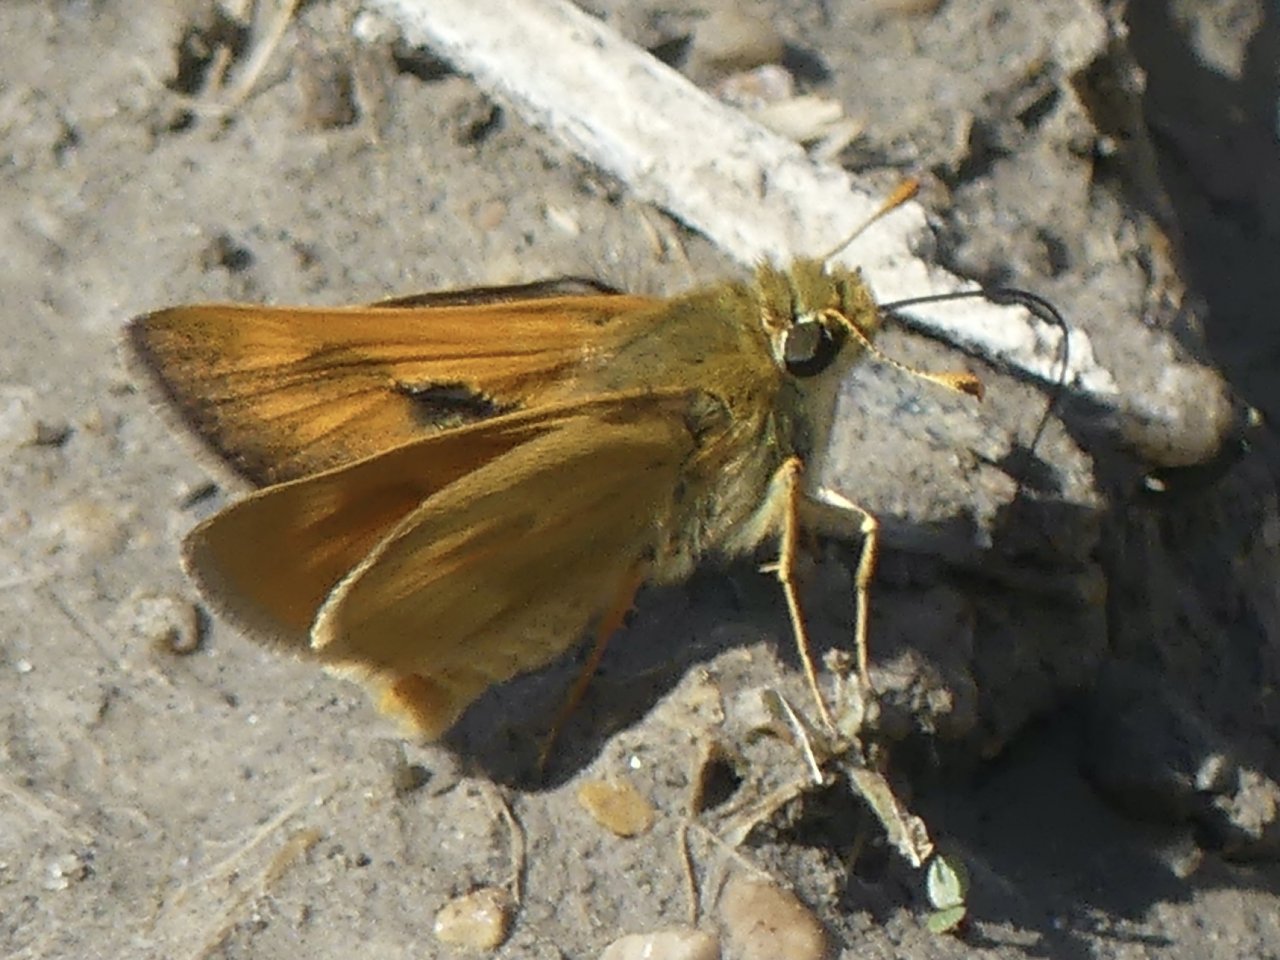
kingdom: Animalia
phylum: Arthropoda
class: Insecta
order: Lepidoptera
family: Hesperiidae
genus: Polites
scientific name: Polites
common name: Long Dash Skipper
